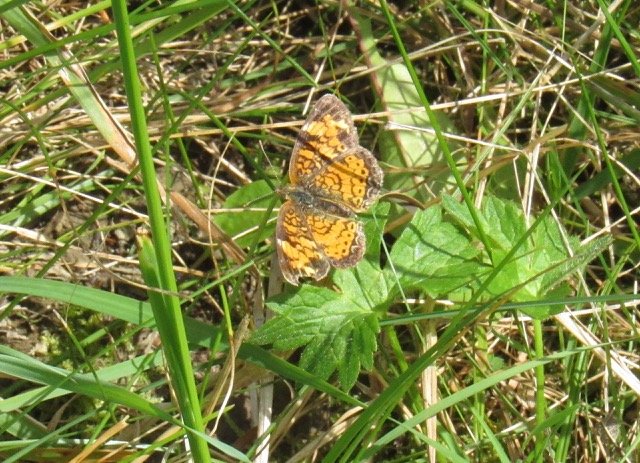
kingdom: Animalia
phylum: Arthropoda
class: Insecta
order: Lepidoptera
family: Nymphalidae
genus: Phyciodes
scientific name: Phyciodes tharos
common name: Pearl Crescent
